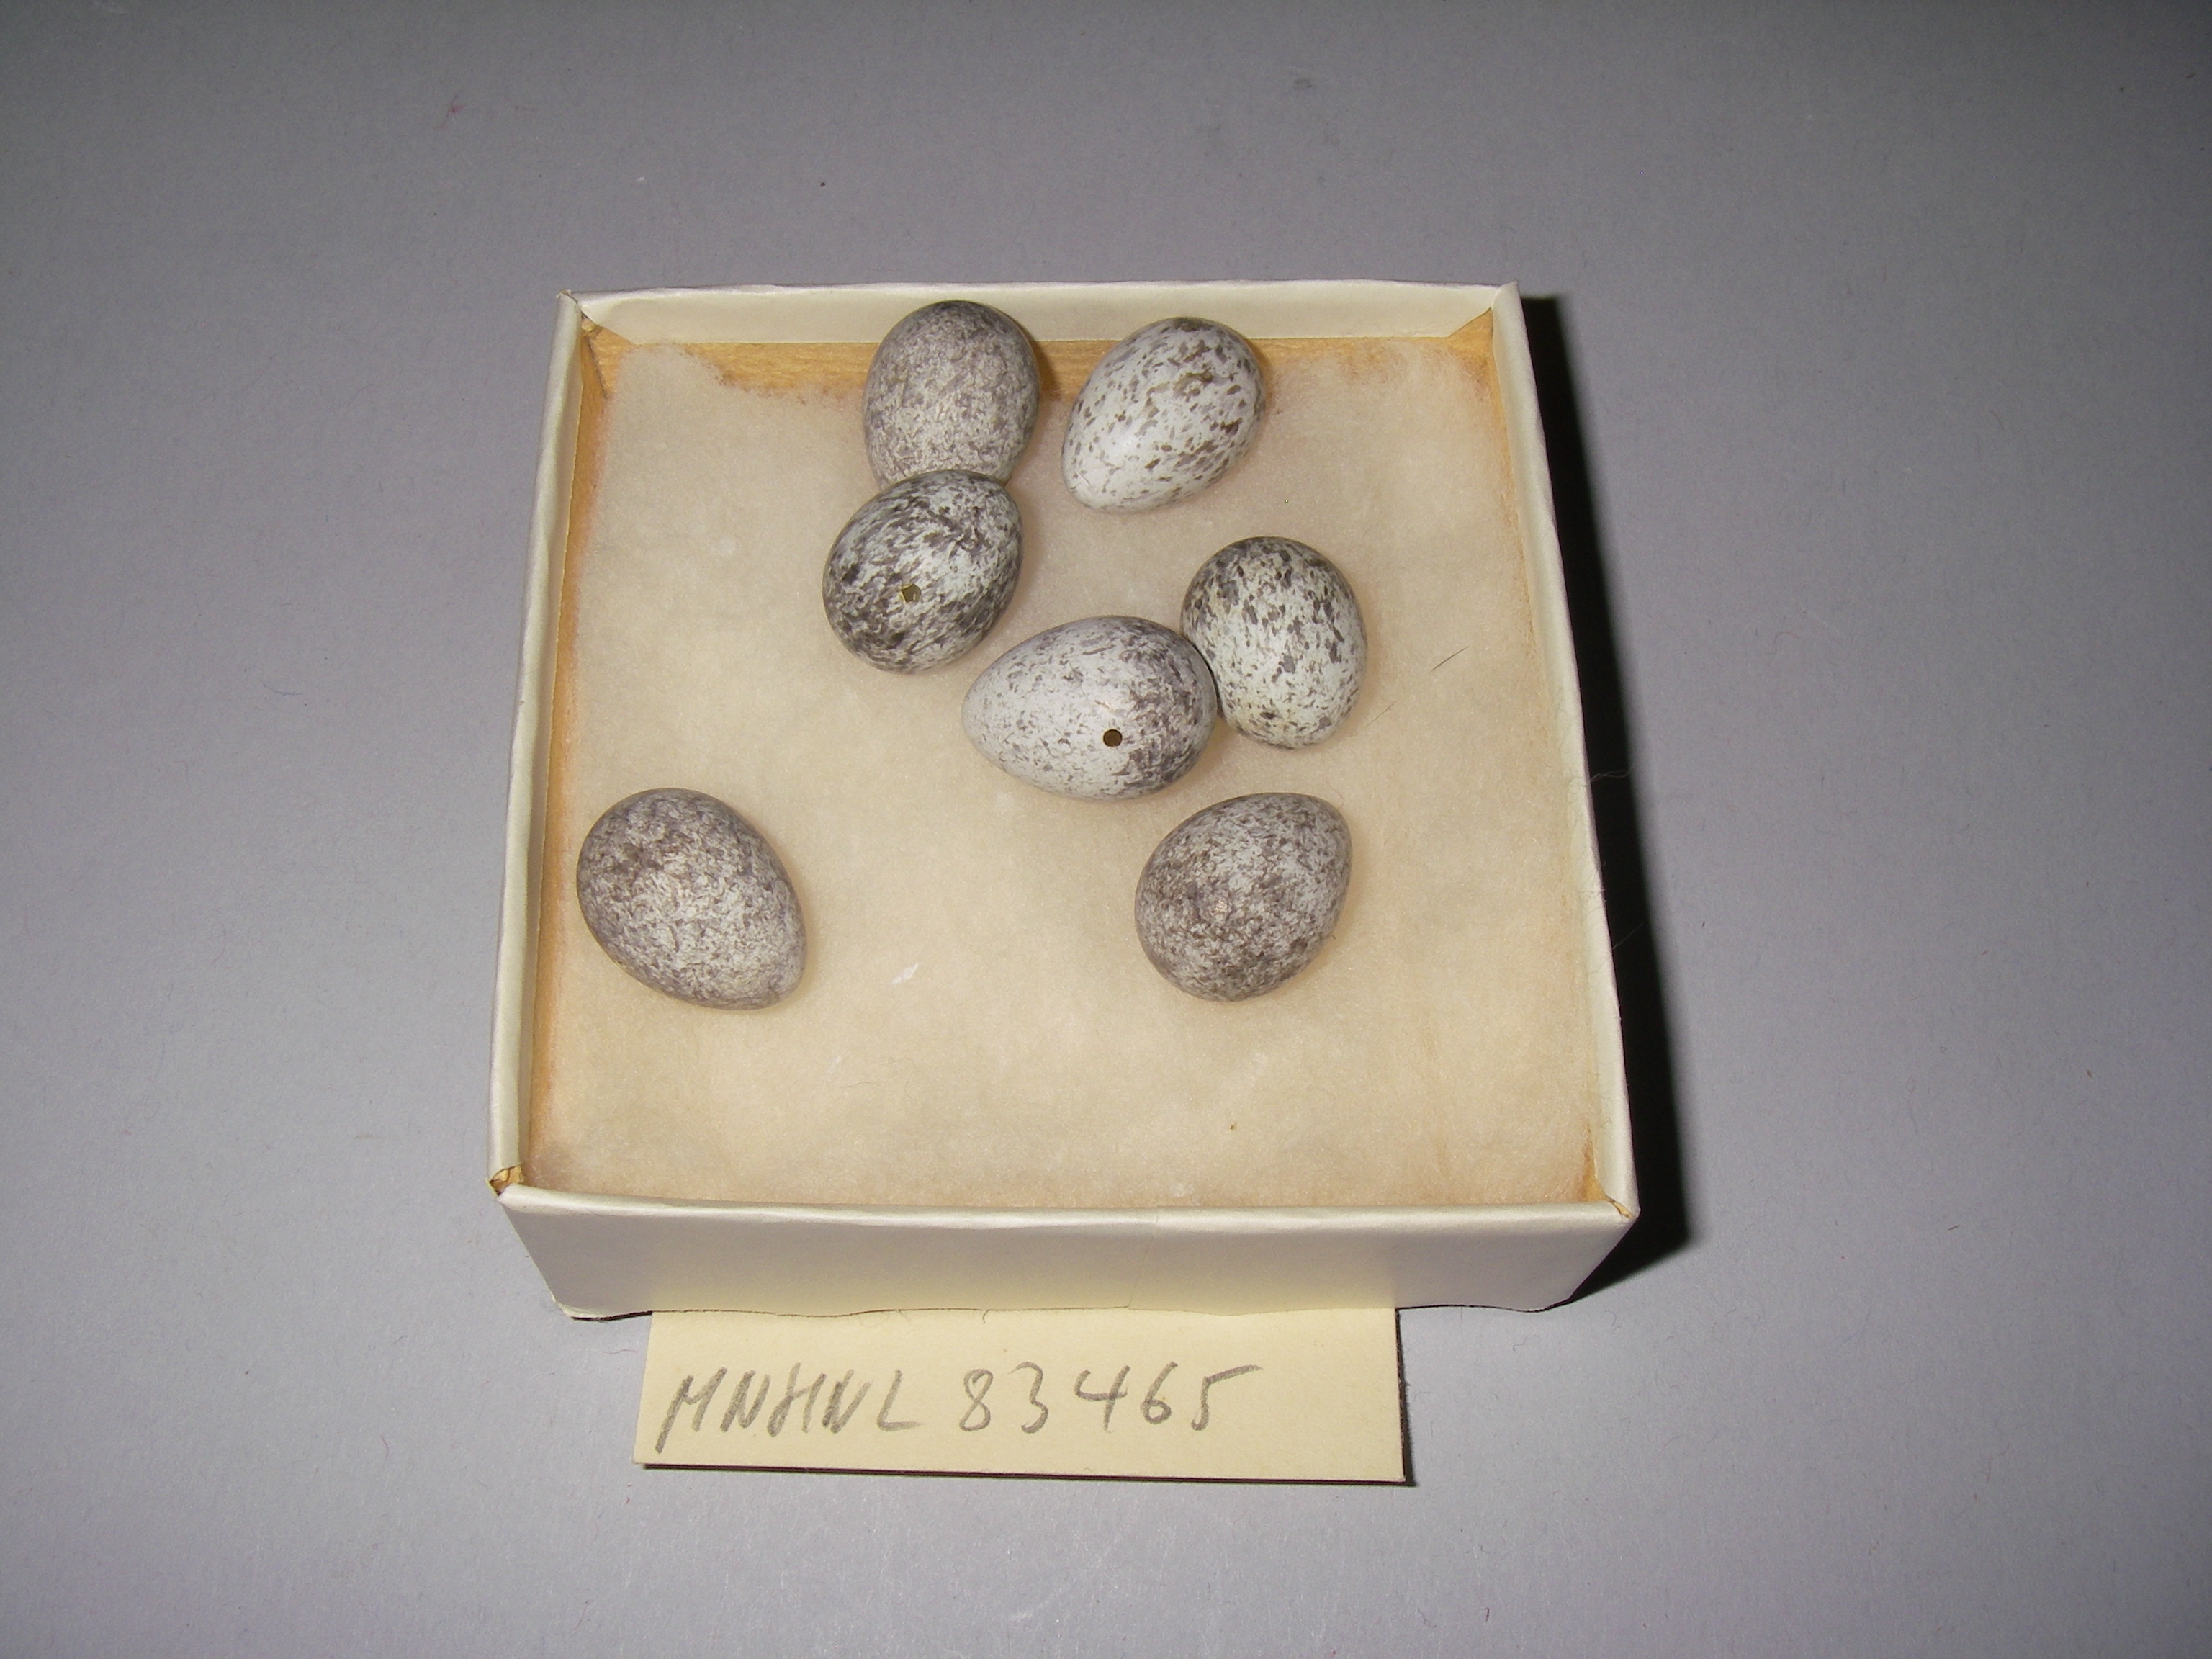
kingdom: Animalia
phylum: Chordata
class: Aves
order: Passeriformes
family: Passeridae
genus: Passer
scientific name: Passer montanus
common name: Eurasian tree sparrow
